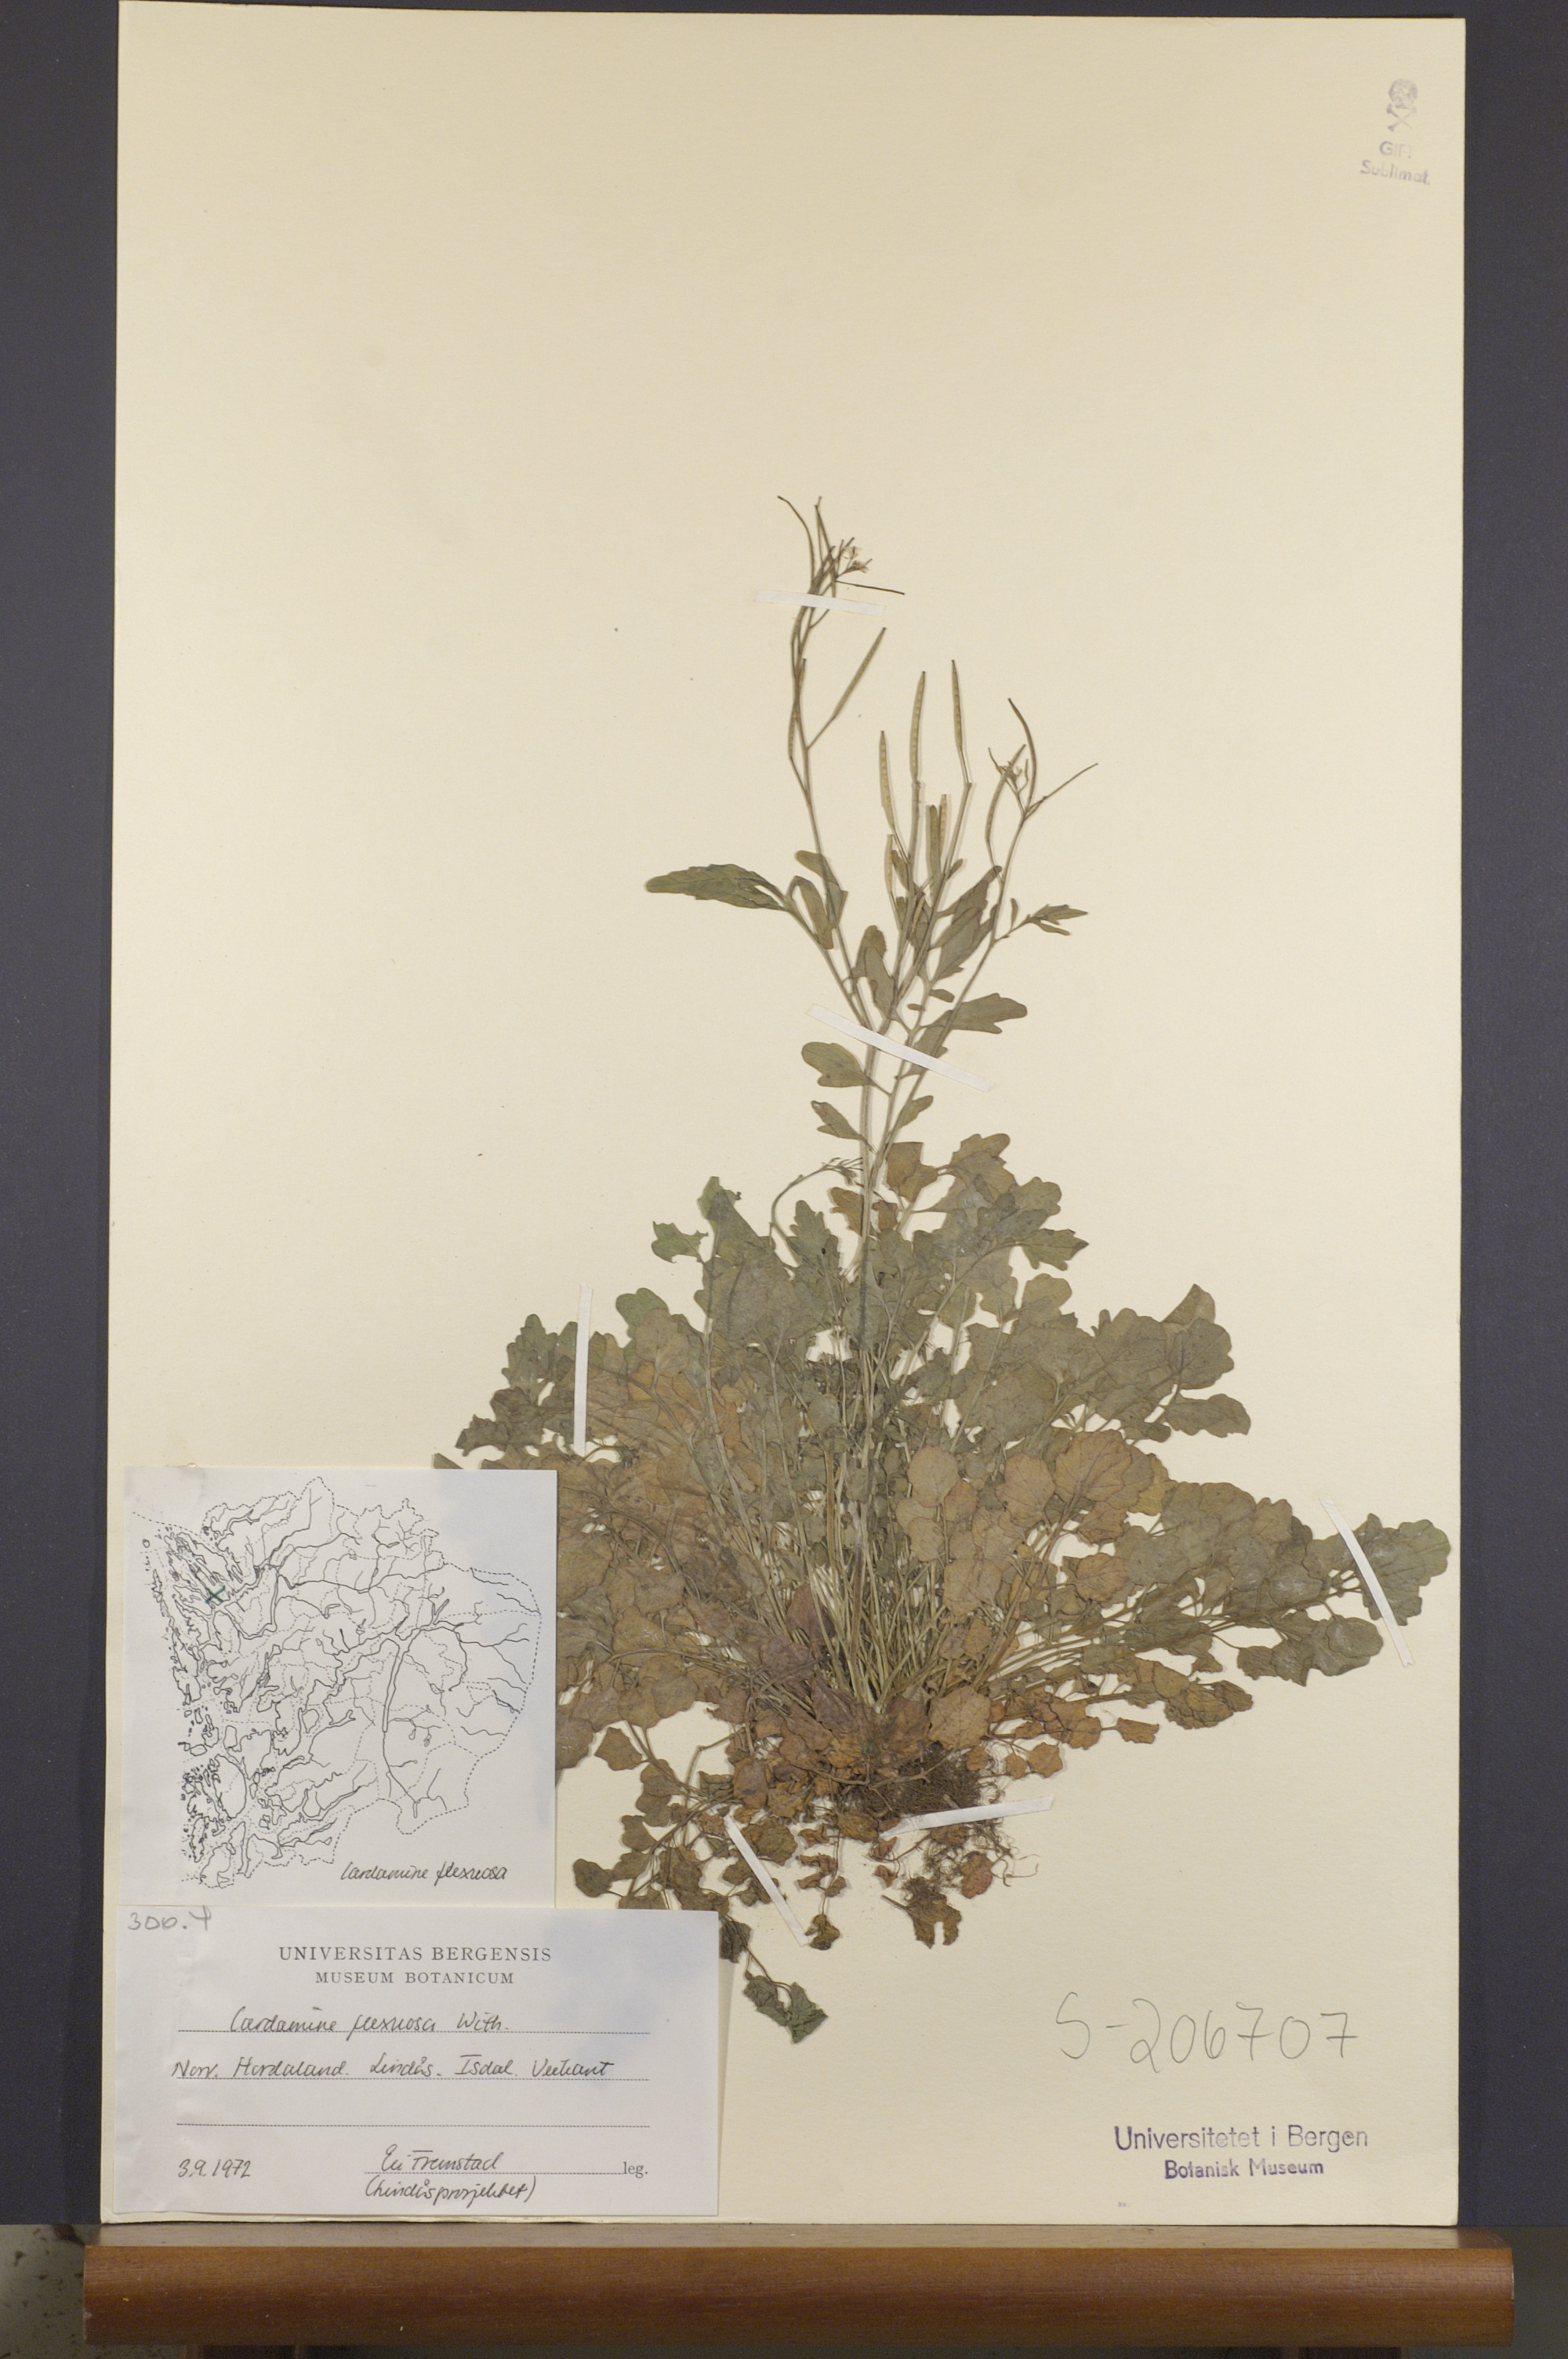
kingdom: Plantae
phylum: Tracheophyta
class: Magnoliopsida
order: Brassicales
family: Brassicaceae
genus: Cardamine
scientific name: Cardamine flexuosa
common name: Woodland bittercress
